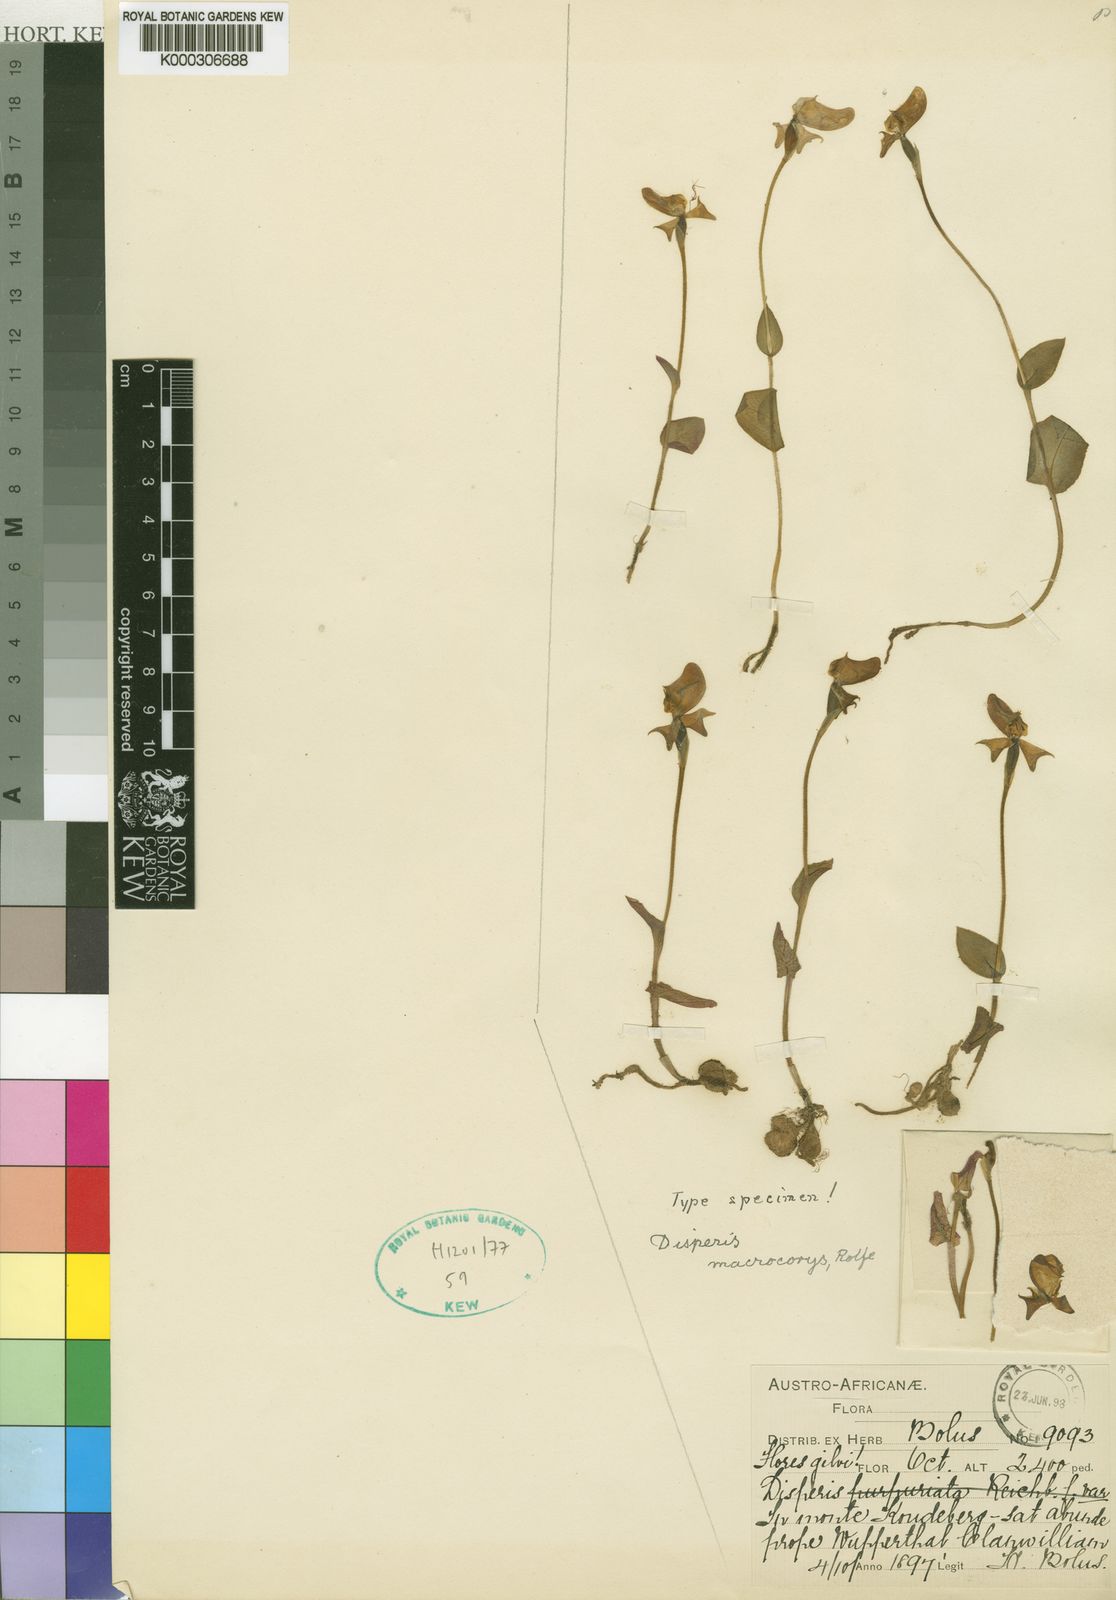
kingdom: Plantae
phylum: Tracheophyta
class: Liliopsida
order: Asparagales
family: Orchidaceae
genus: Disperis
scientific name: Disperis bolusiana
